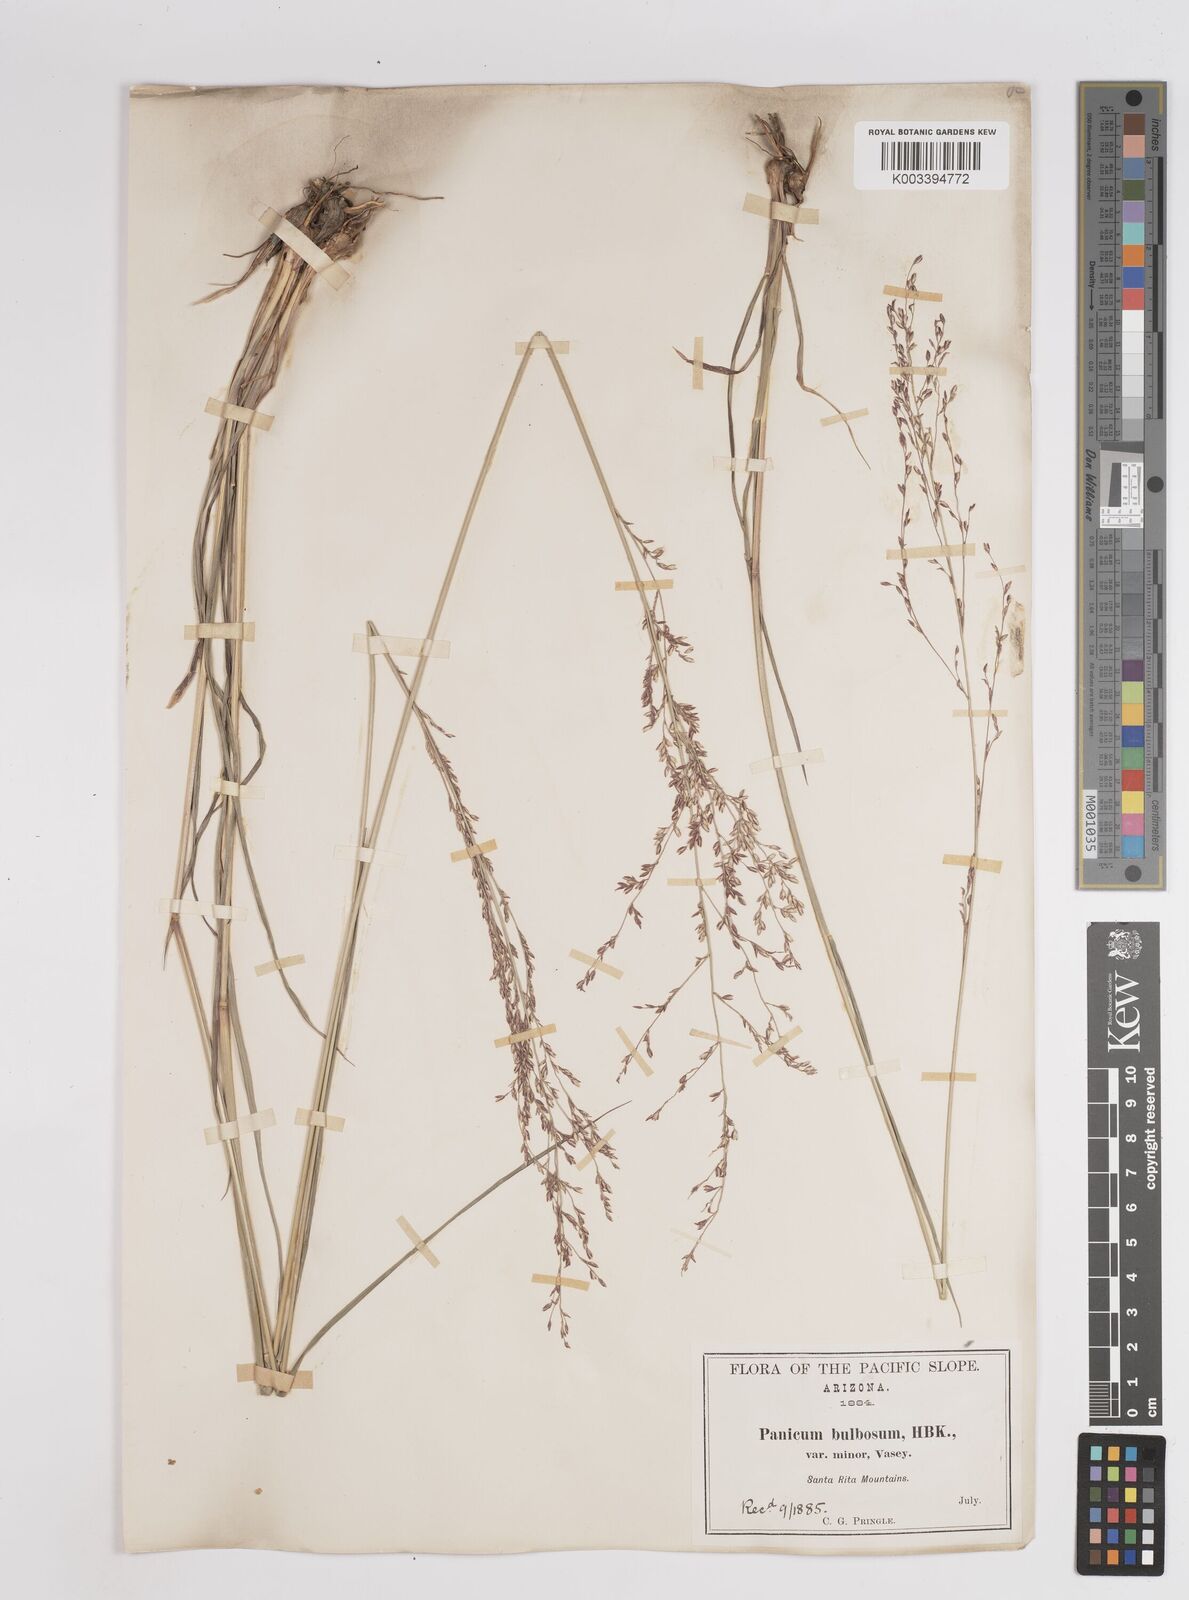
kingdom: Plantae
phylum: Tracheophyta
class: Liliopsida
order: Poales
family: Poaceae
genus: Zuloagaea
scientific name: Zuloagaea bulbosa
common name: Canyon panic grass
